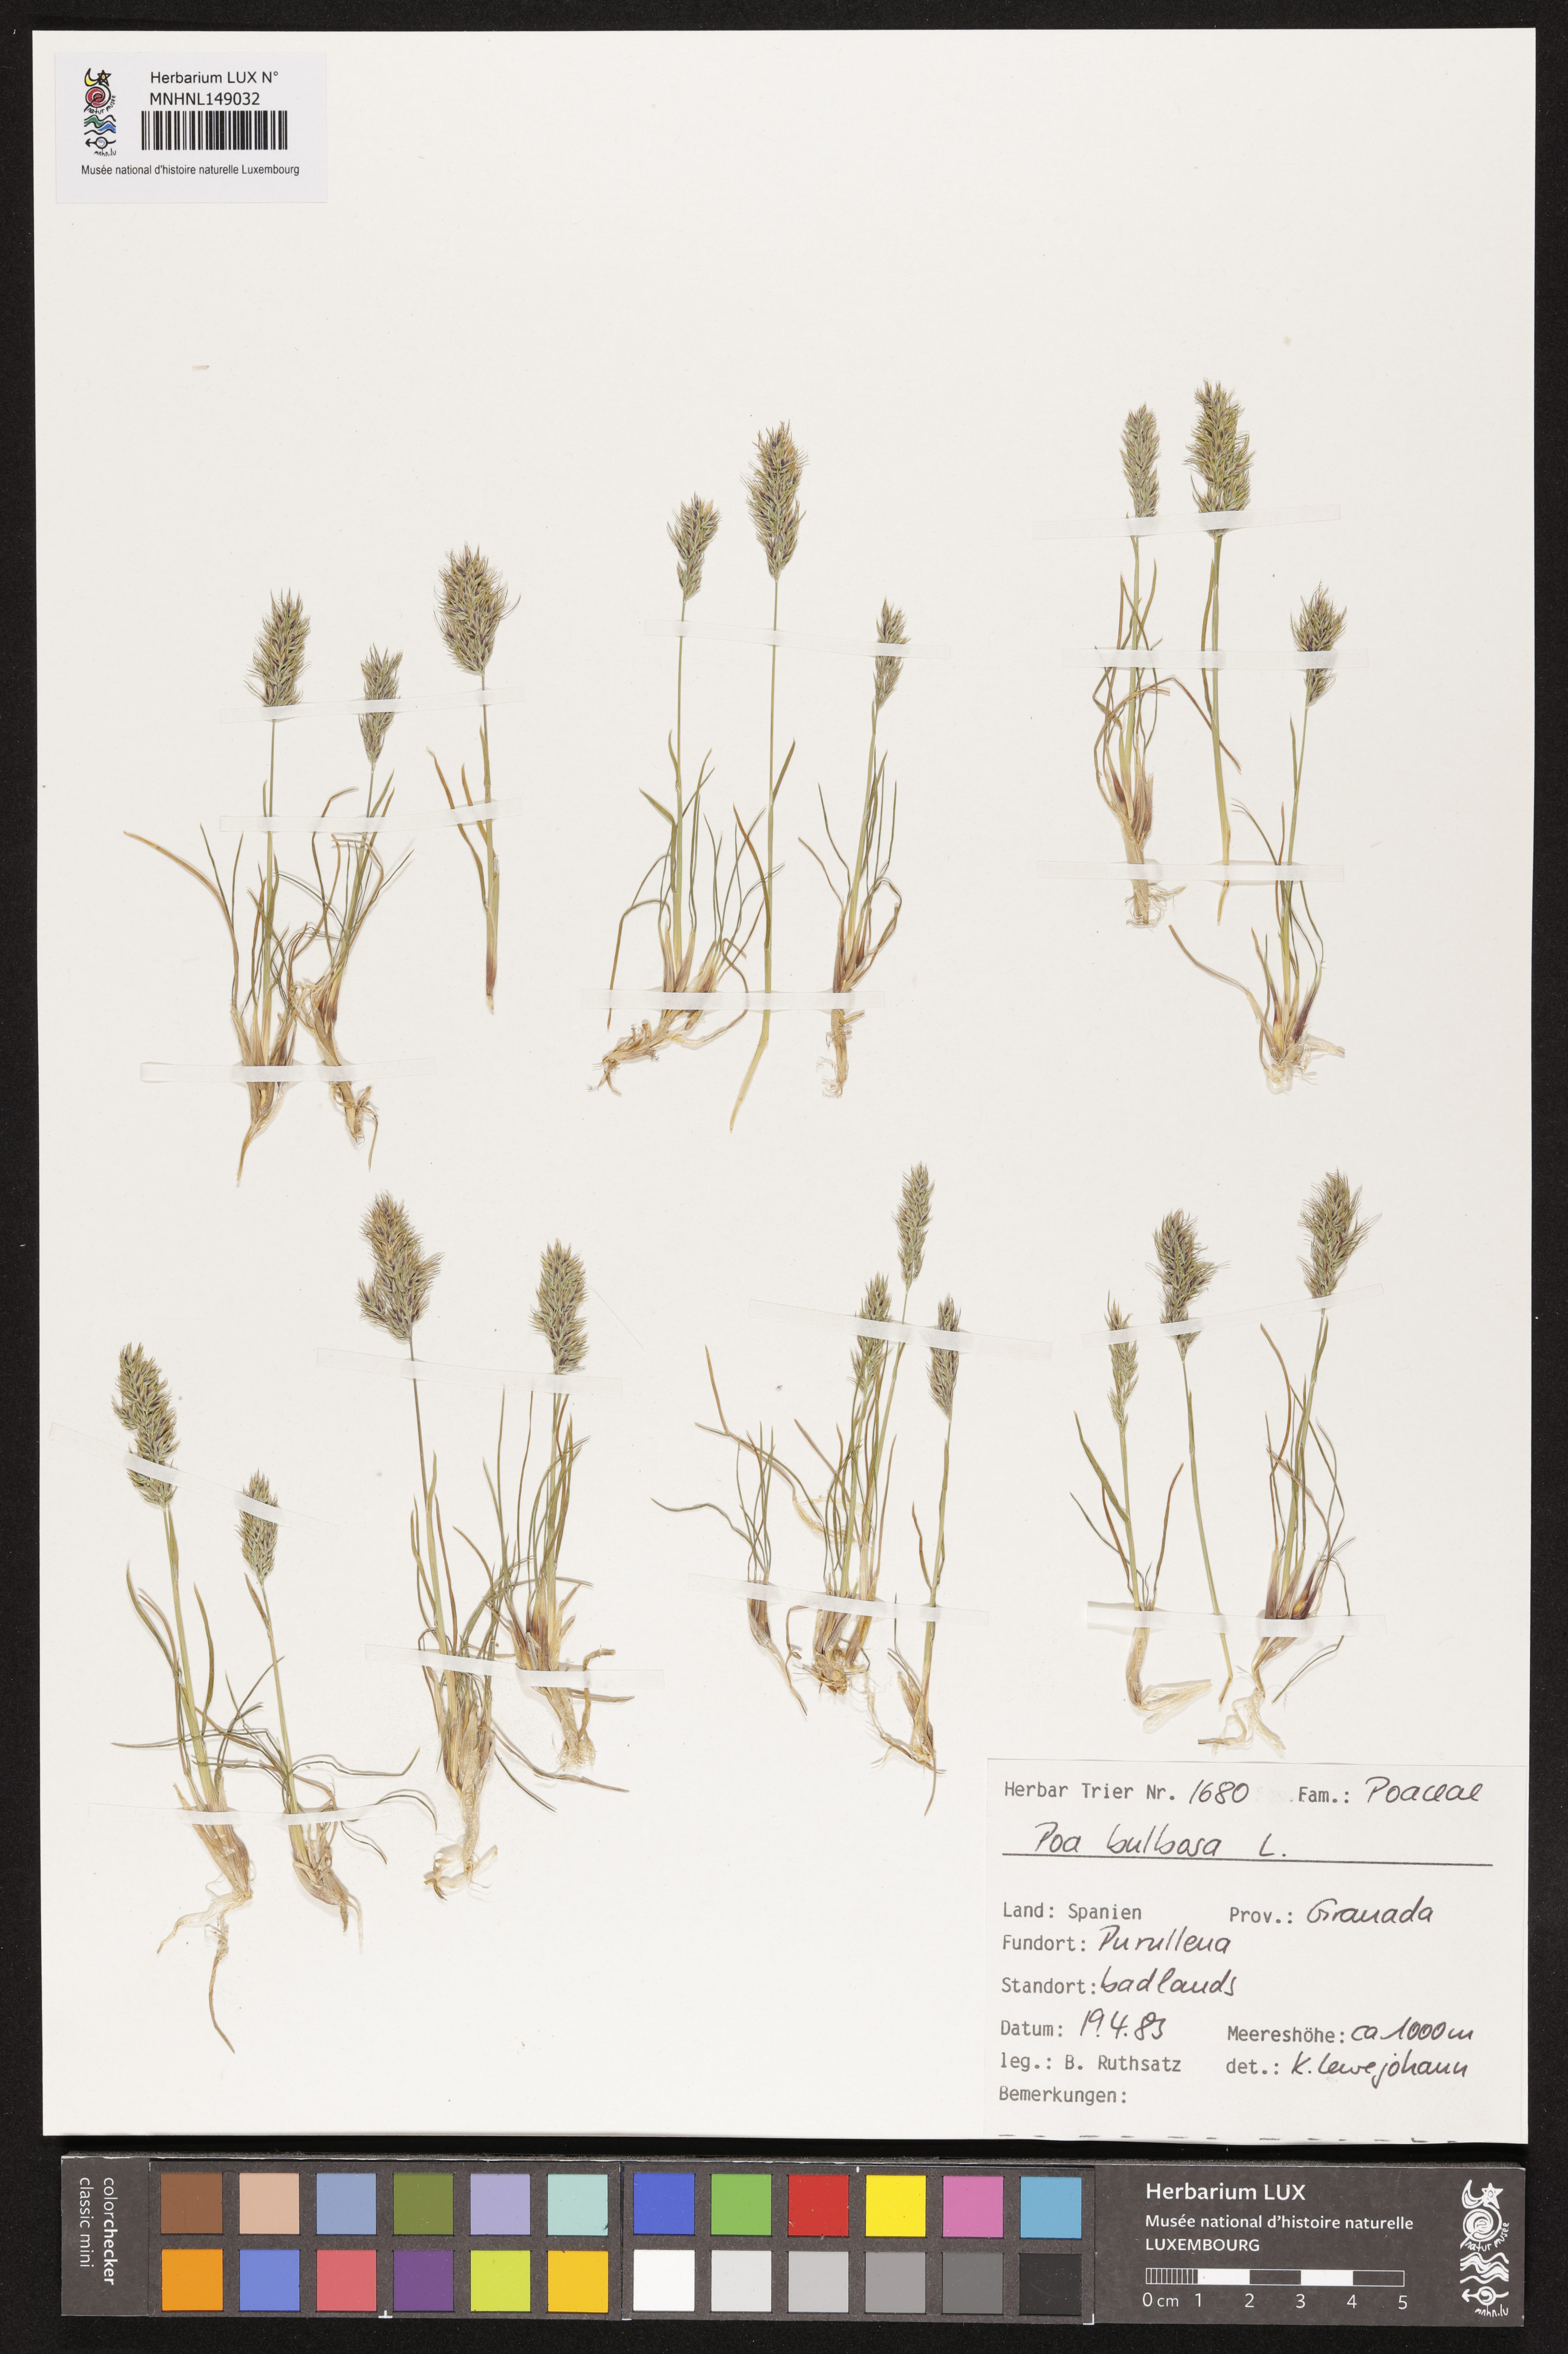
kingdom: Plantae
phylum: Tracheophyta
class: Liliopsida
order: Poales
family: Poaceae
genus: Poa
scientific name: Poa bulbosa
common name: Bulbous bluegrass
